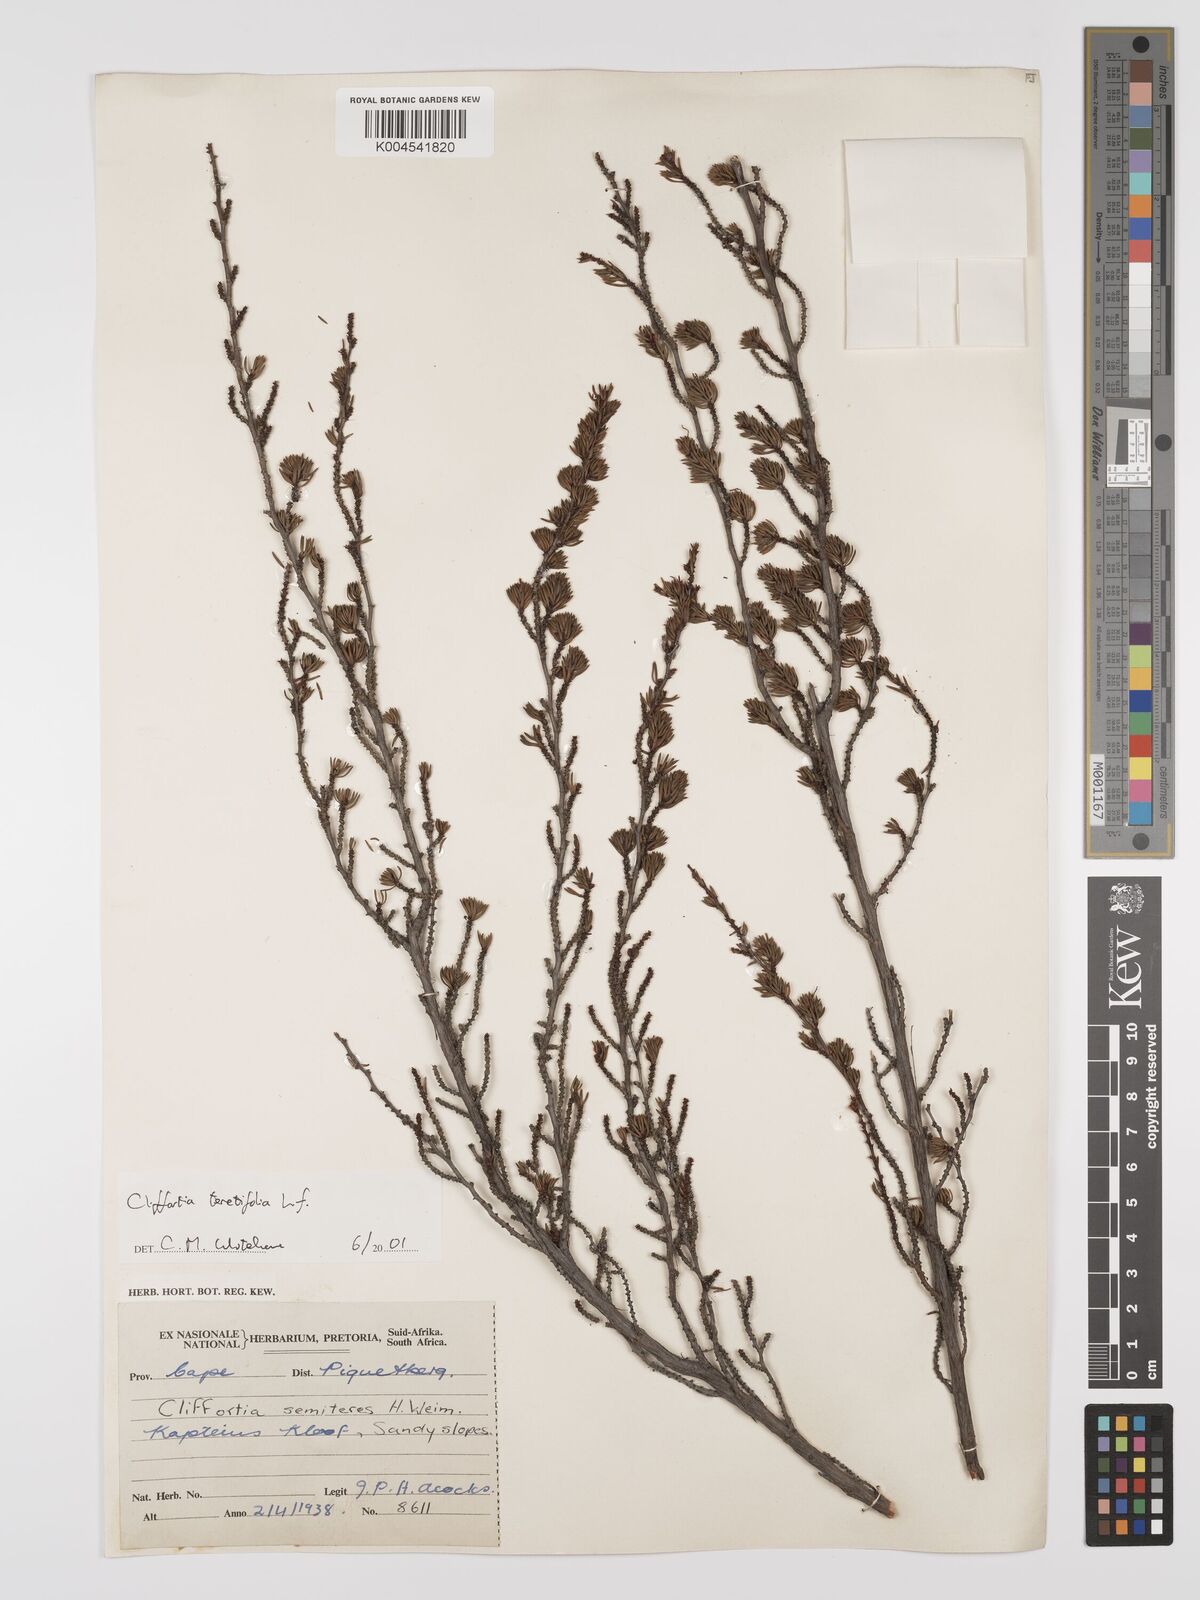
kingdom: Plantae
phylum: Tracheophyta
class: Magnoliopsida
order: Rosales
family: Rosaceae
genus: Cliffortia
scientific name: Cliffortia teretifolia
